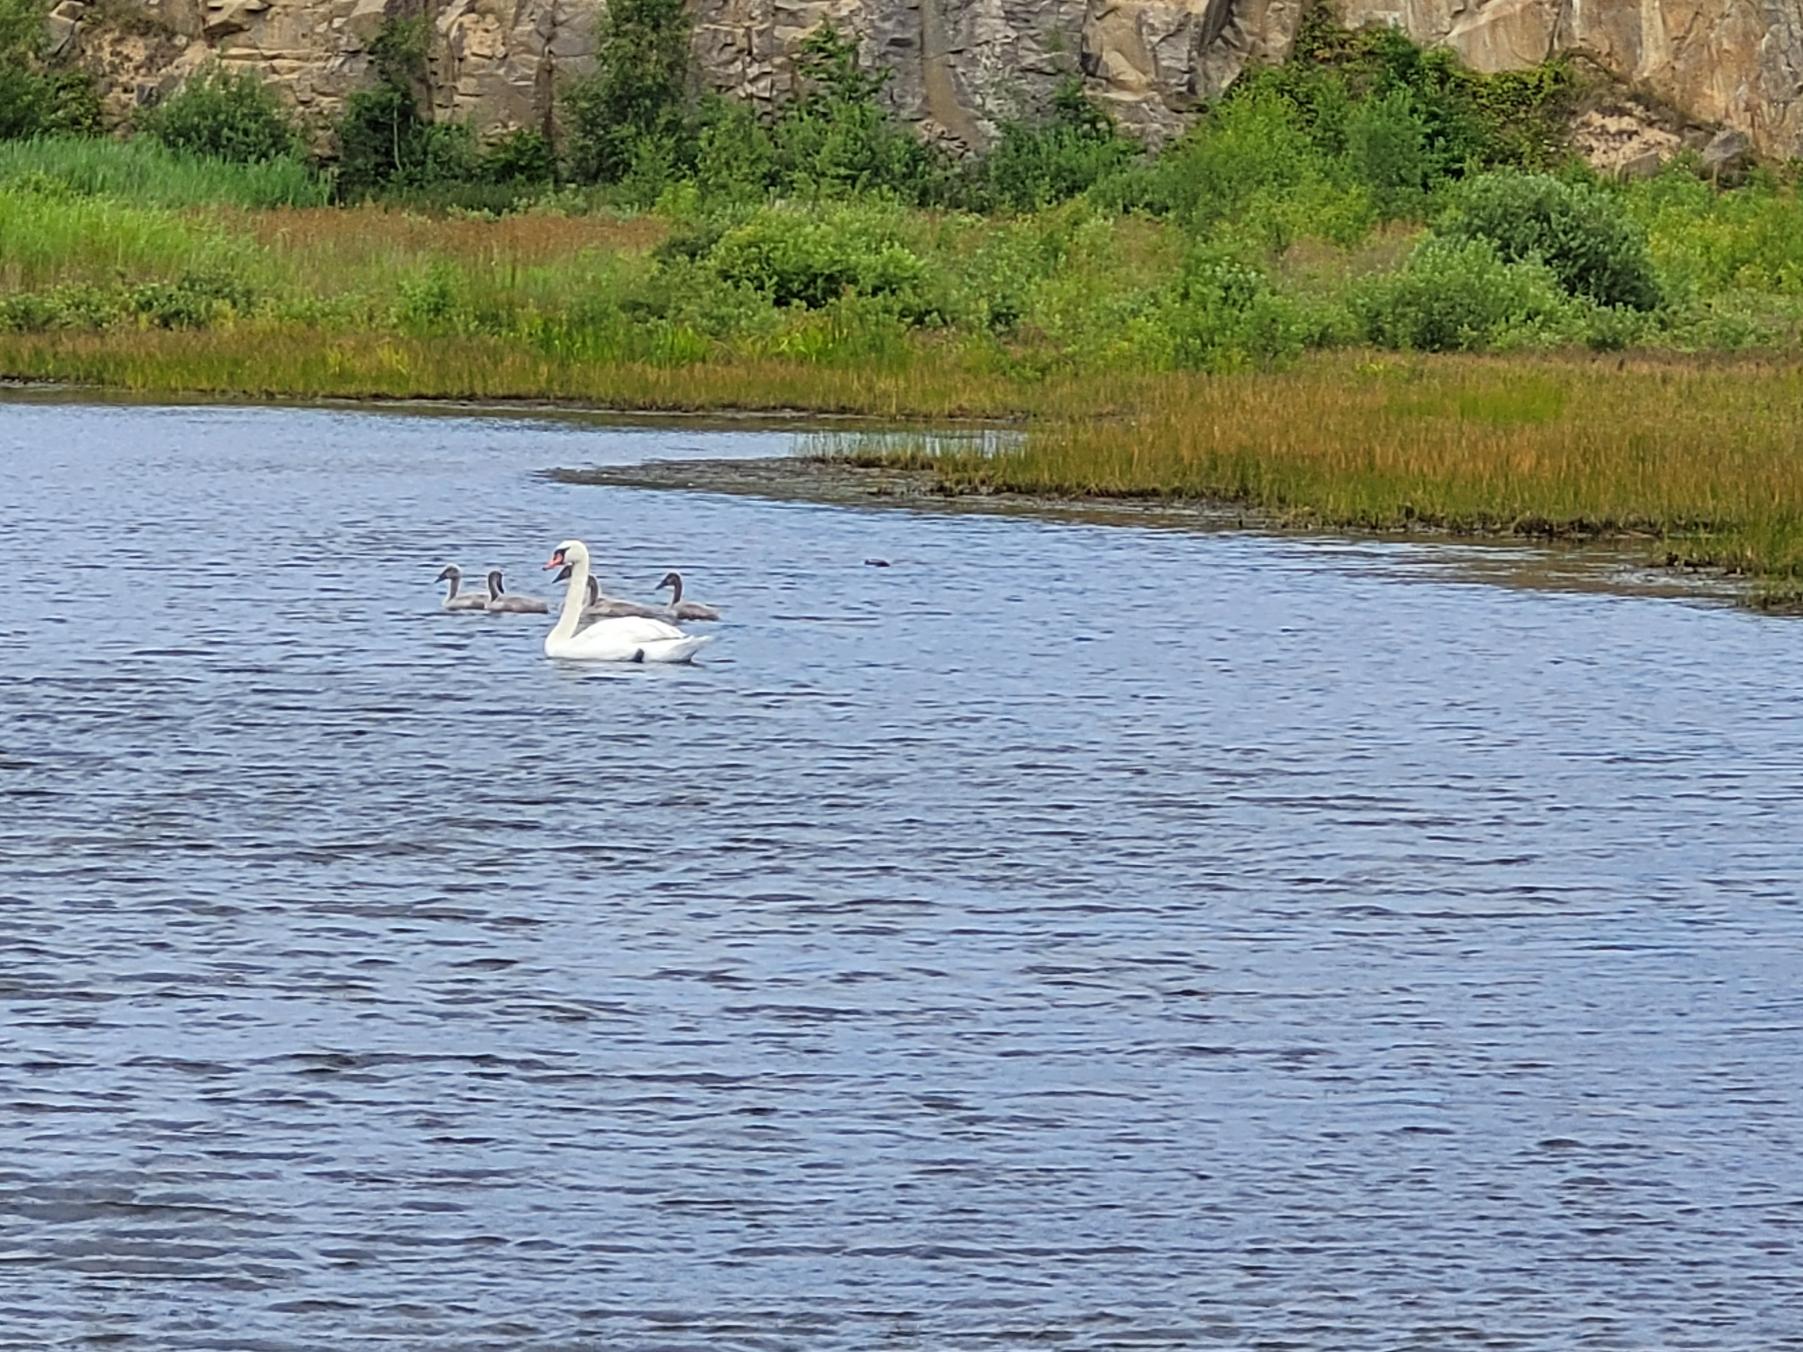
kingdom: Animalia
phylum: Chordata
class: Aves
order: Anseriformes
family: Anatidae
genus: Cygnus
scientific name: Cygnus olor
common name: Knopsvane
